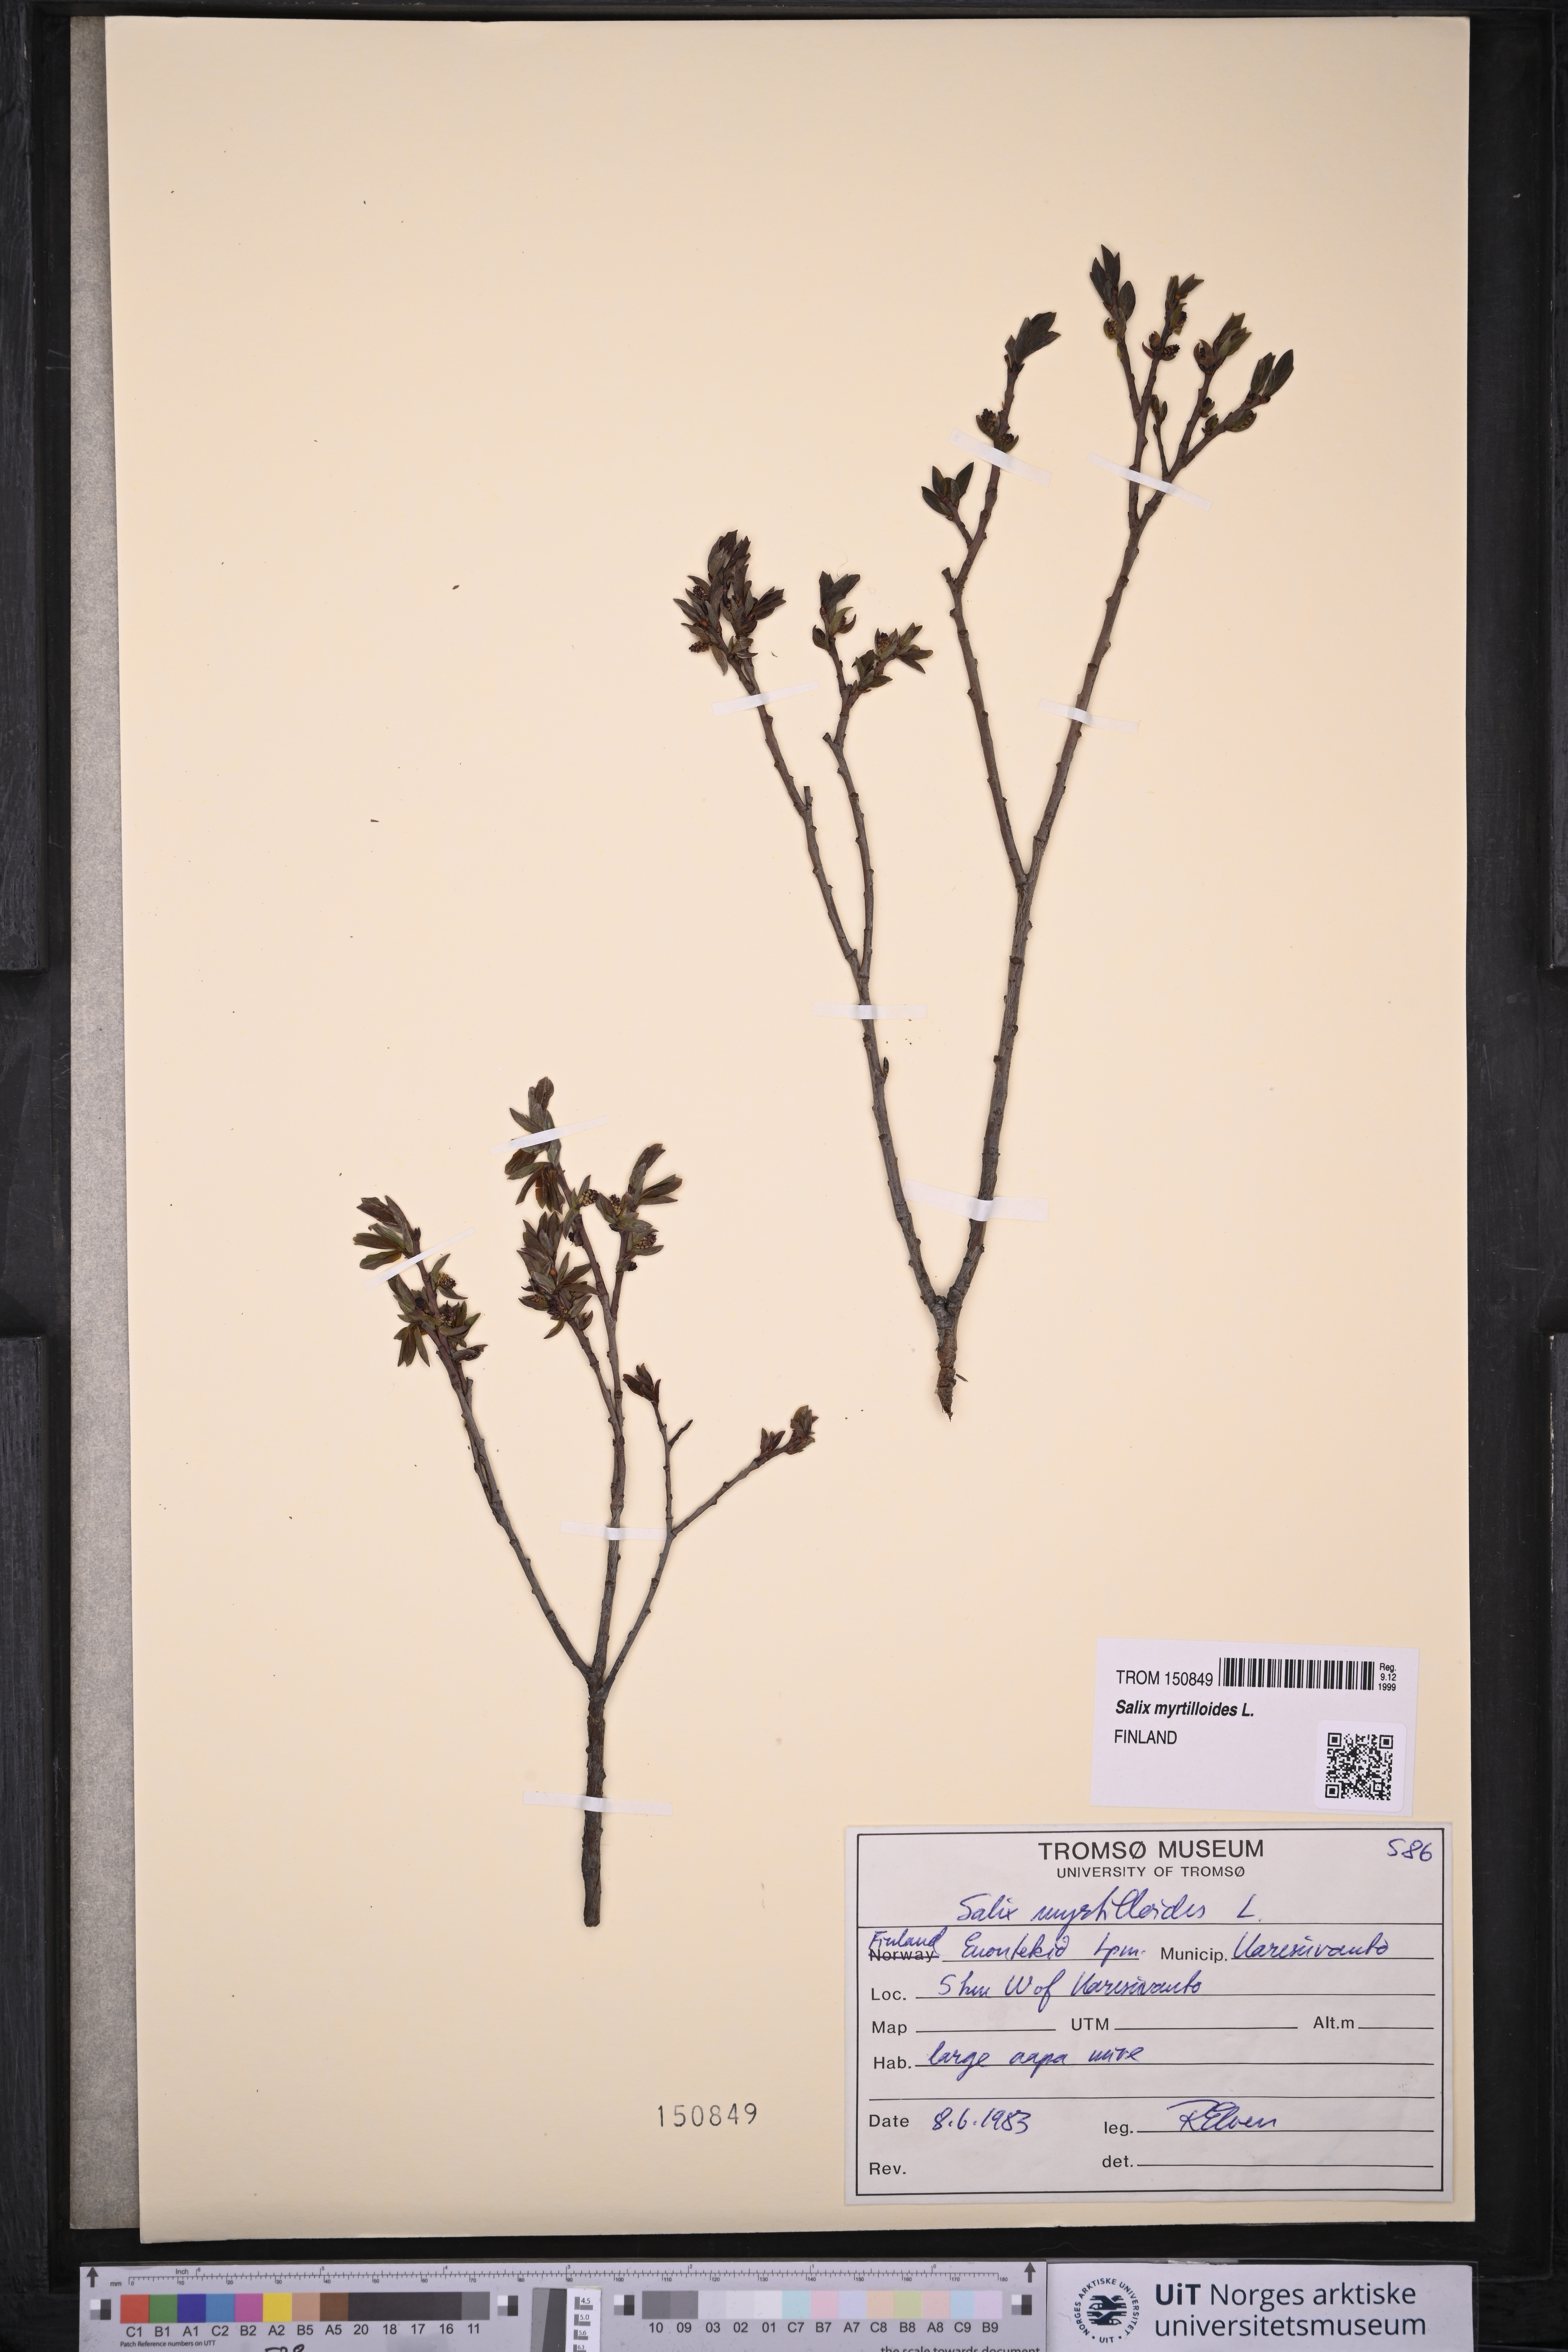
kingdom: Plantae
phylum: Tracheophyta
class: Magnoliopsida
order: Malpighiales
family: Salicaceae
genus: Salix
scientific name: Salix myrtilloides
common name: Myrtle-leaved willow
